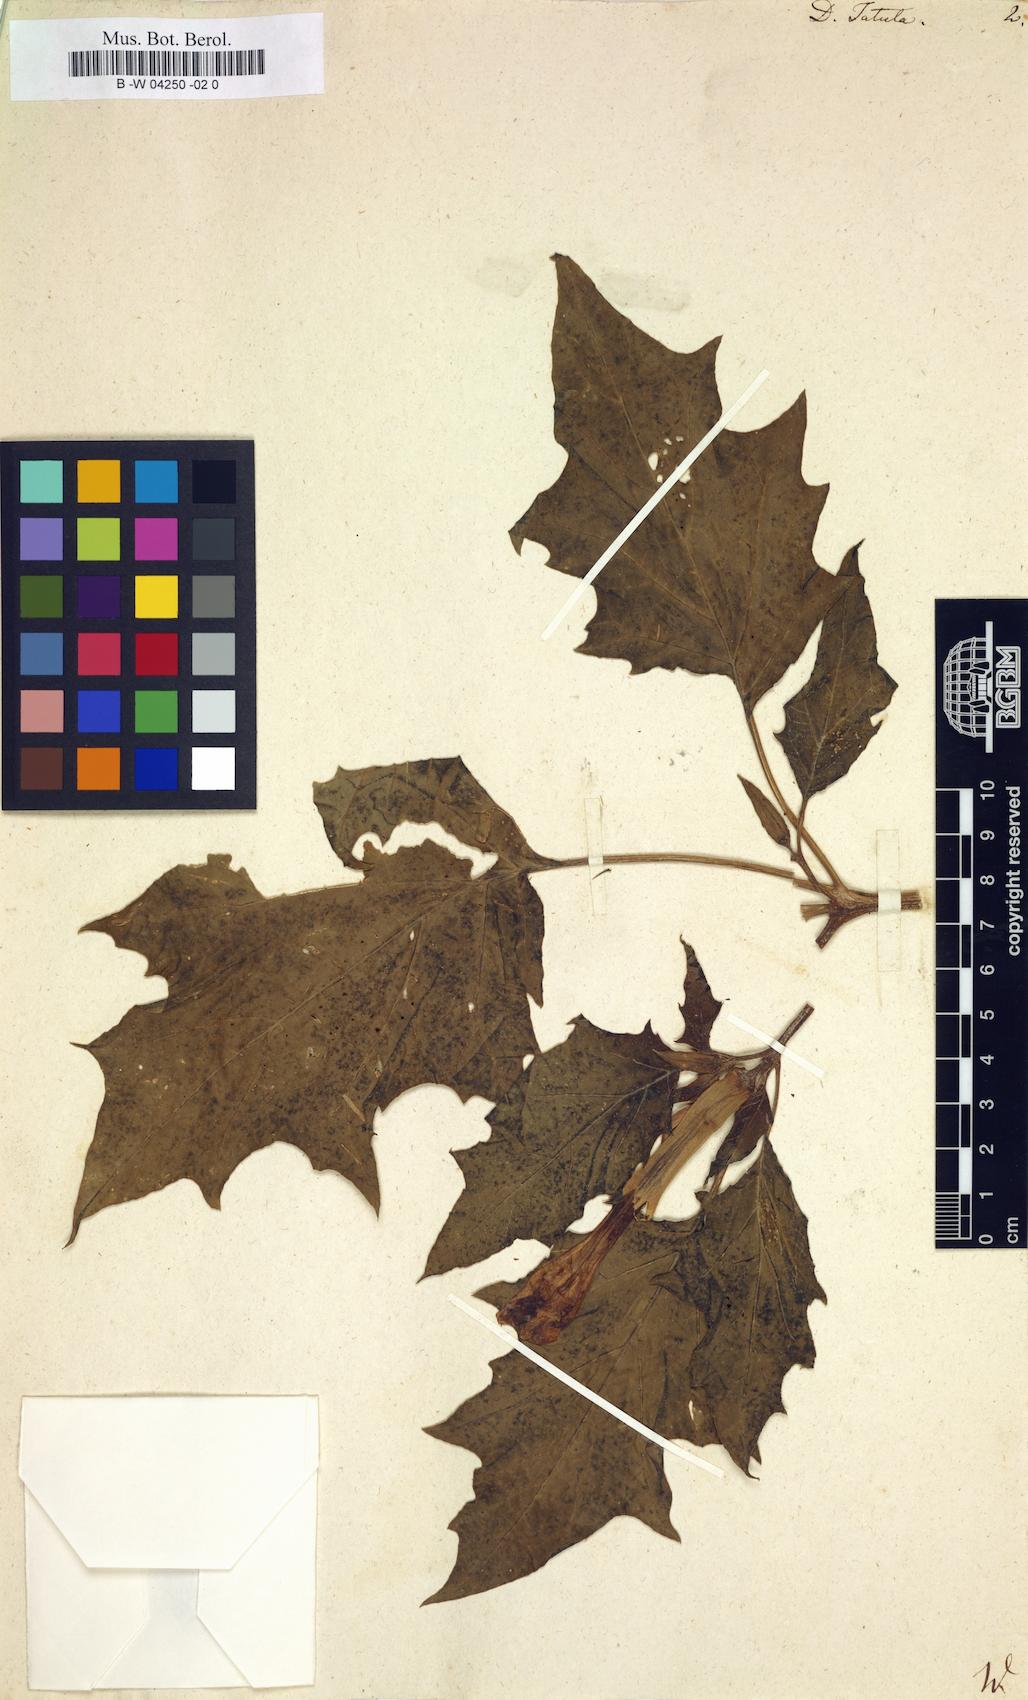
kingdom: Plantae
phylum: Tracheophyta
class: Magnoliopsida
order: Solanales
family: Solanaceae
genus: Datura
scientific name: Datura stramonium
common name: Thorn-apple
